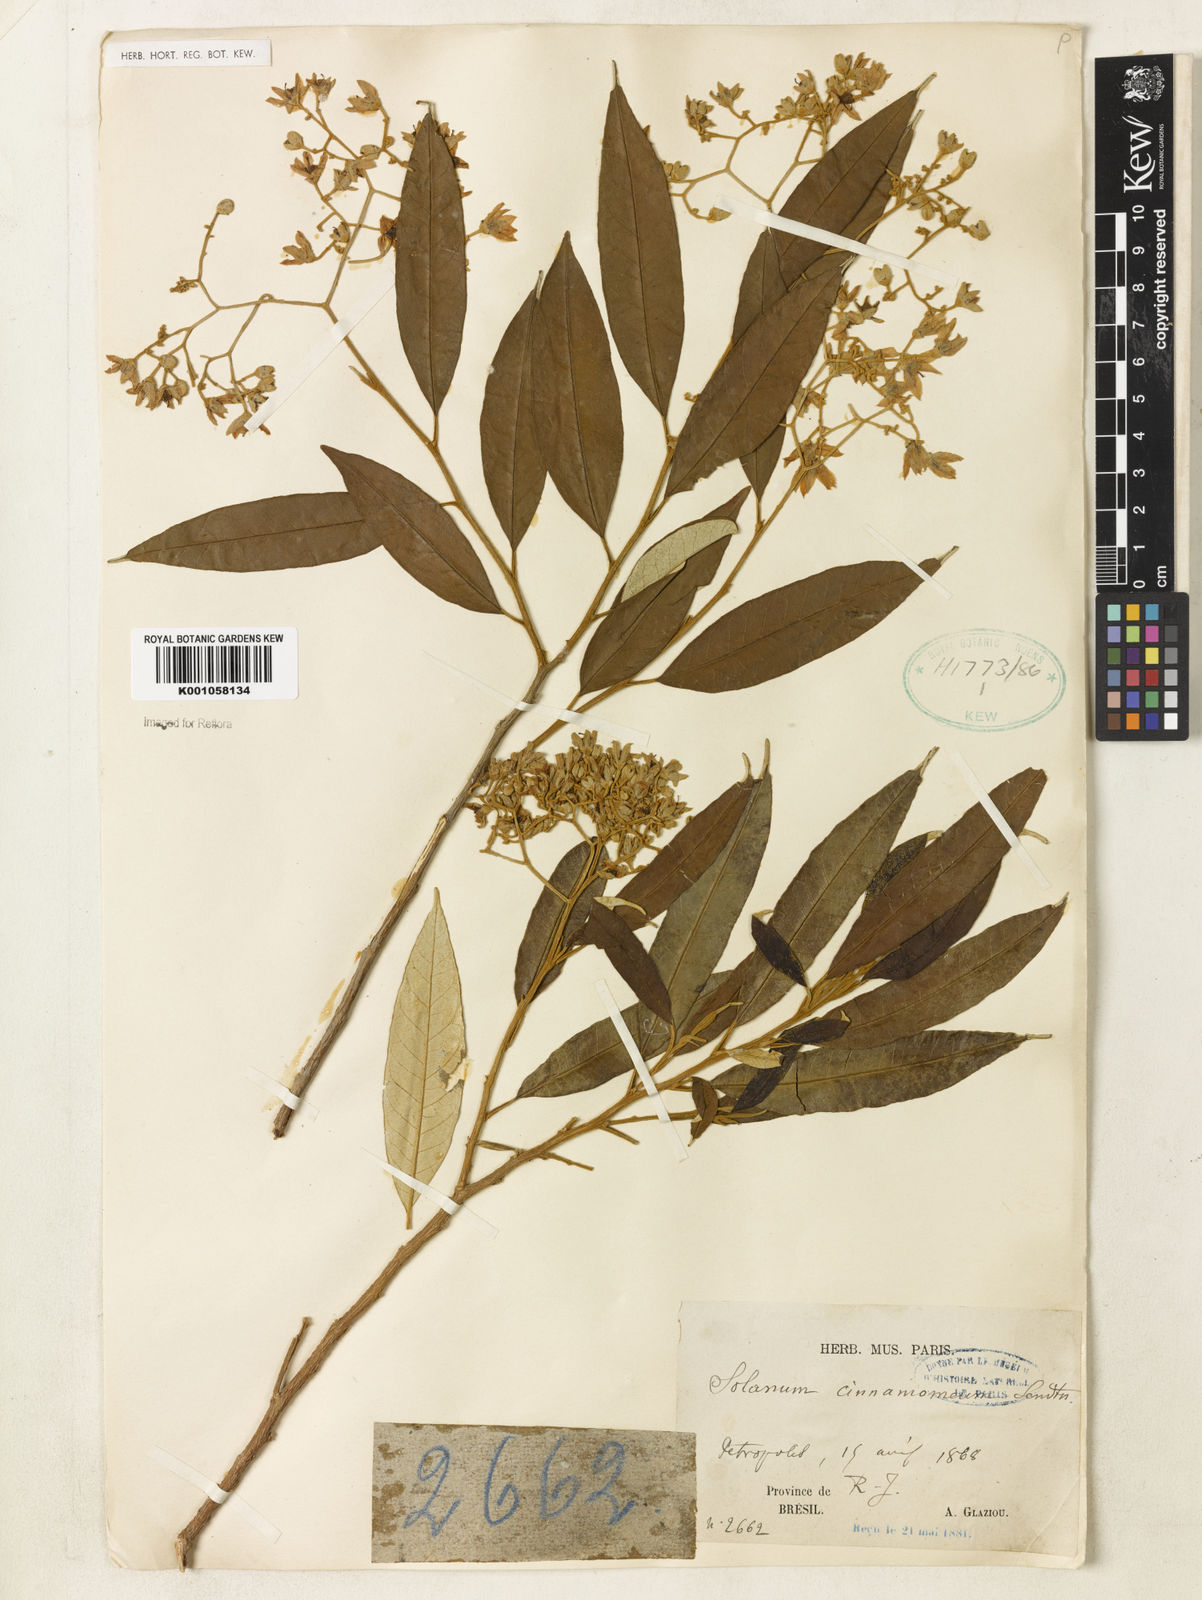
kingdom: Plantae
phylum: Tracheophyta
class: Magnoliopsida
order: Solanales
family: Solanaceae
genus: Solanum
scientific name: Solanum cinnamomeum
